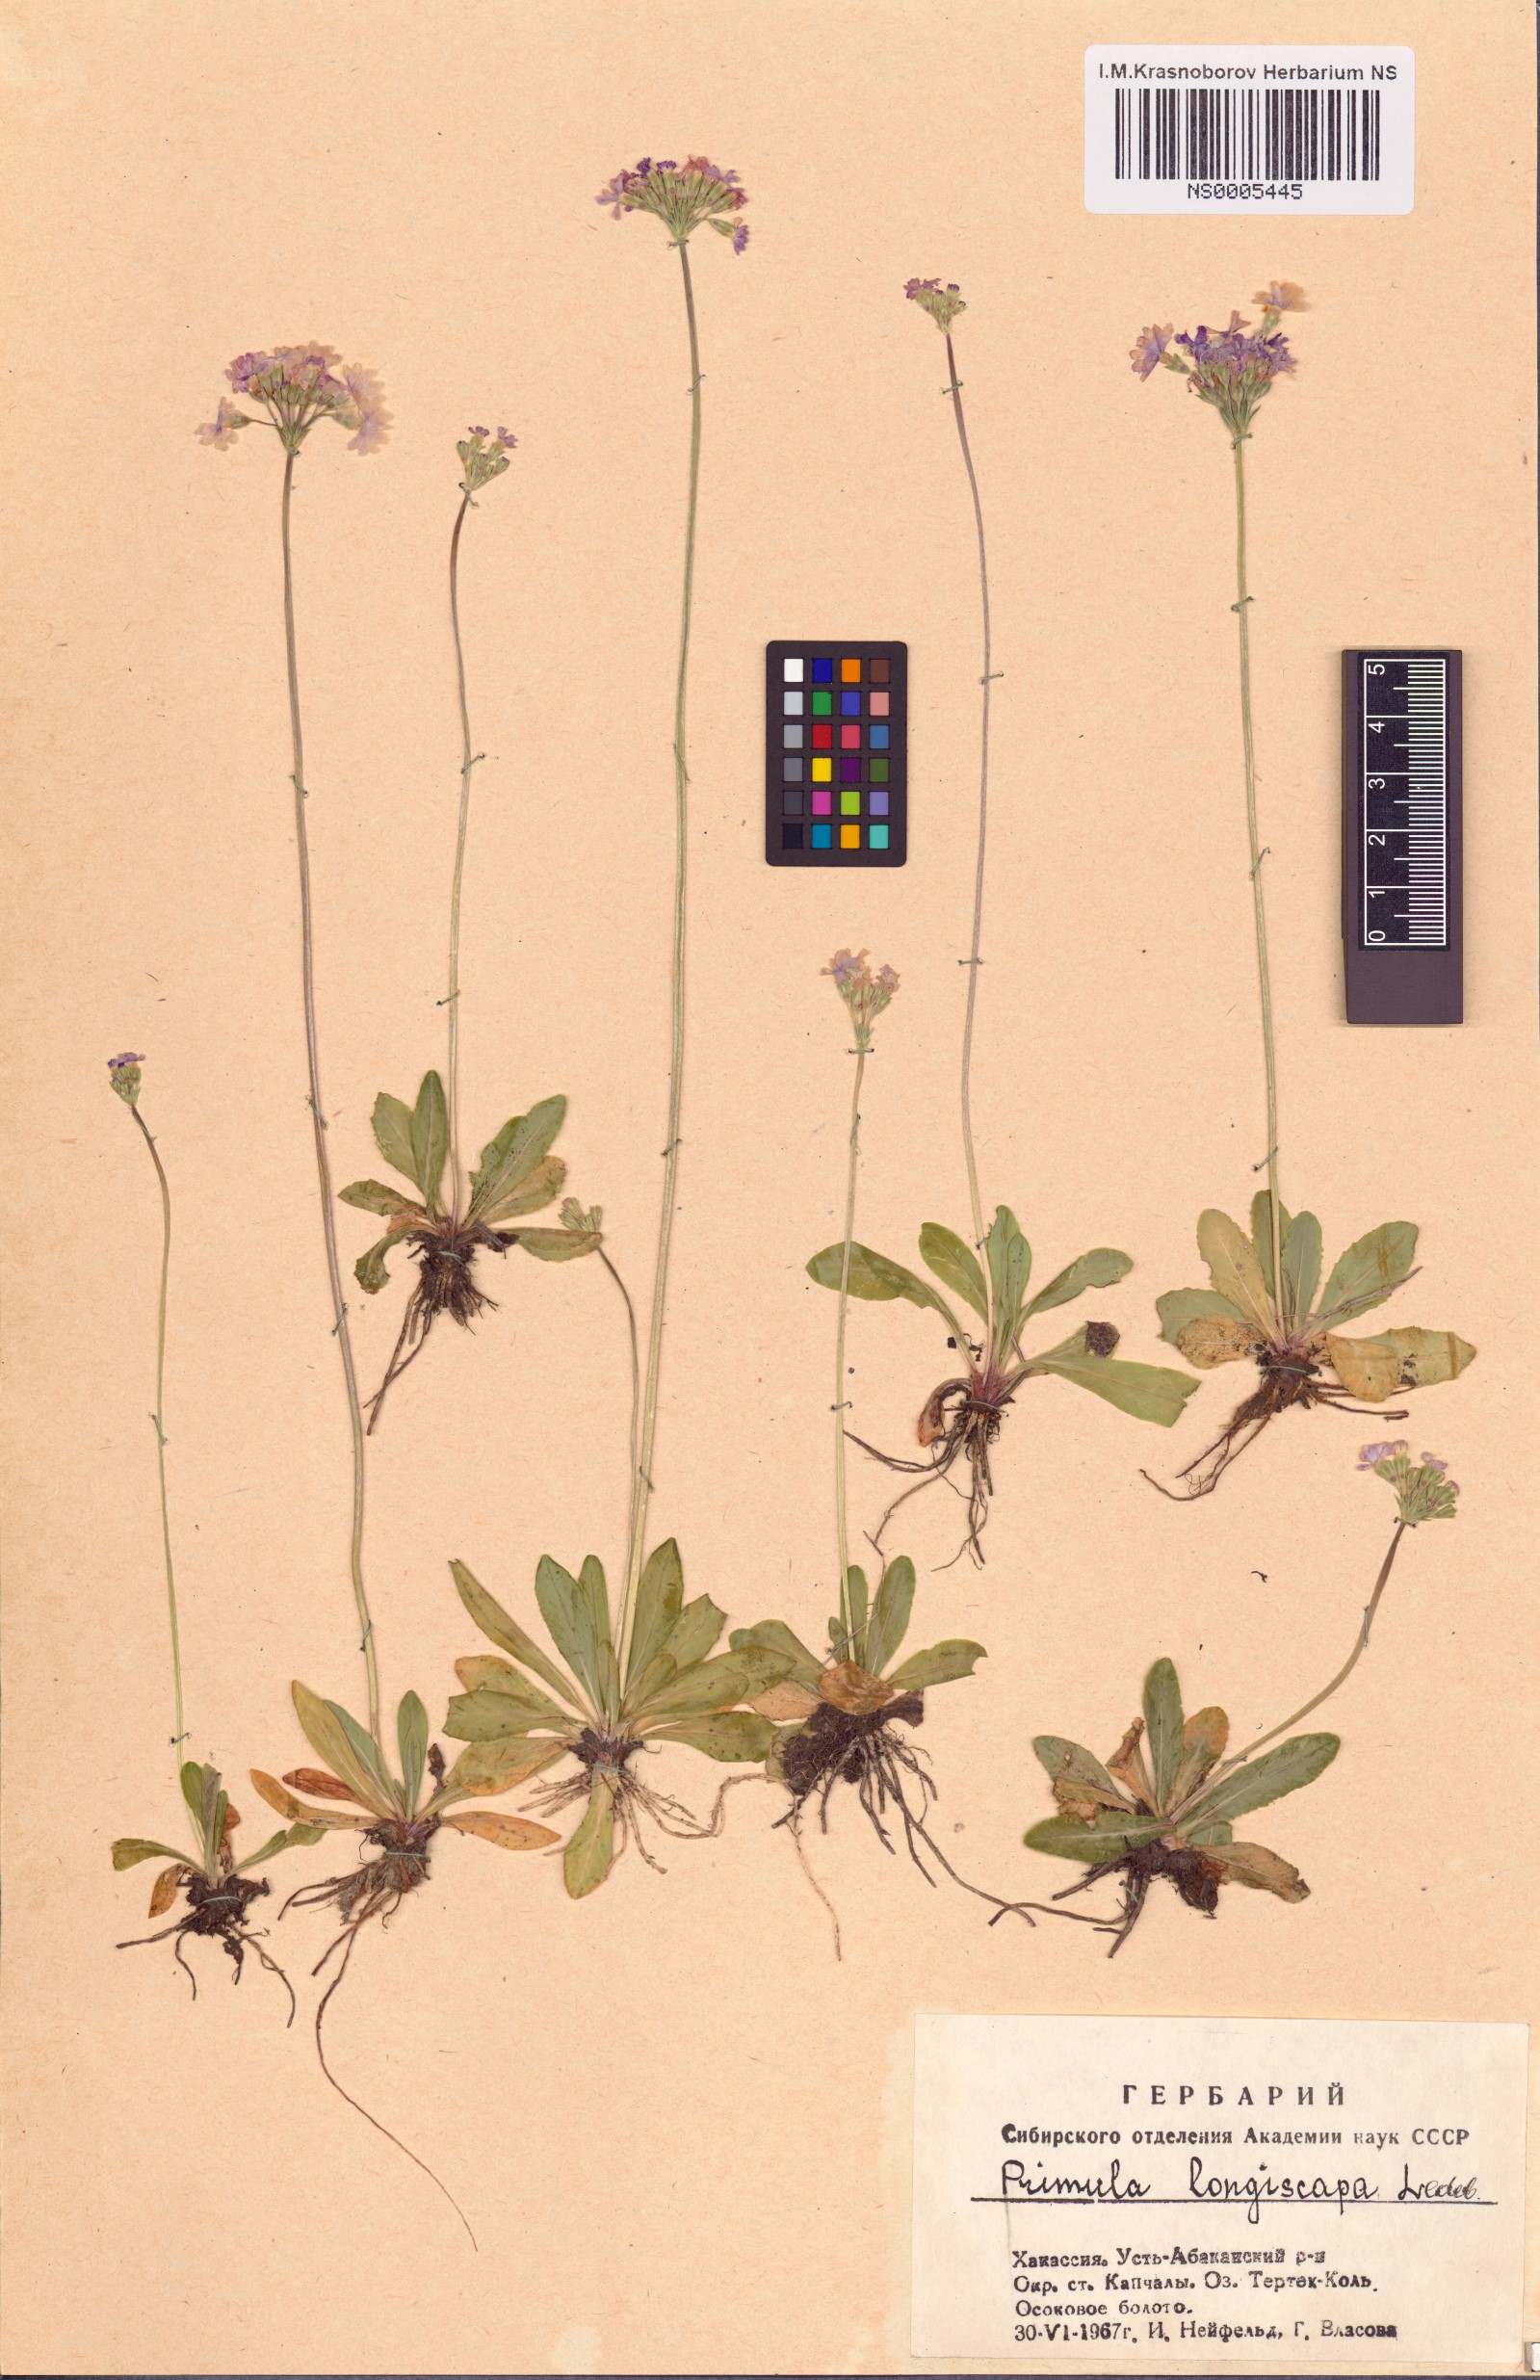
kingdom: Plantae
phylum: Tracheophyta
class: Magnoliopsida
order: Ericales
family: Primulaceae
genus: Primula
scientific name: Primula longiscapa
